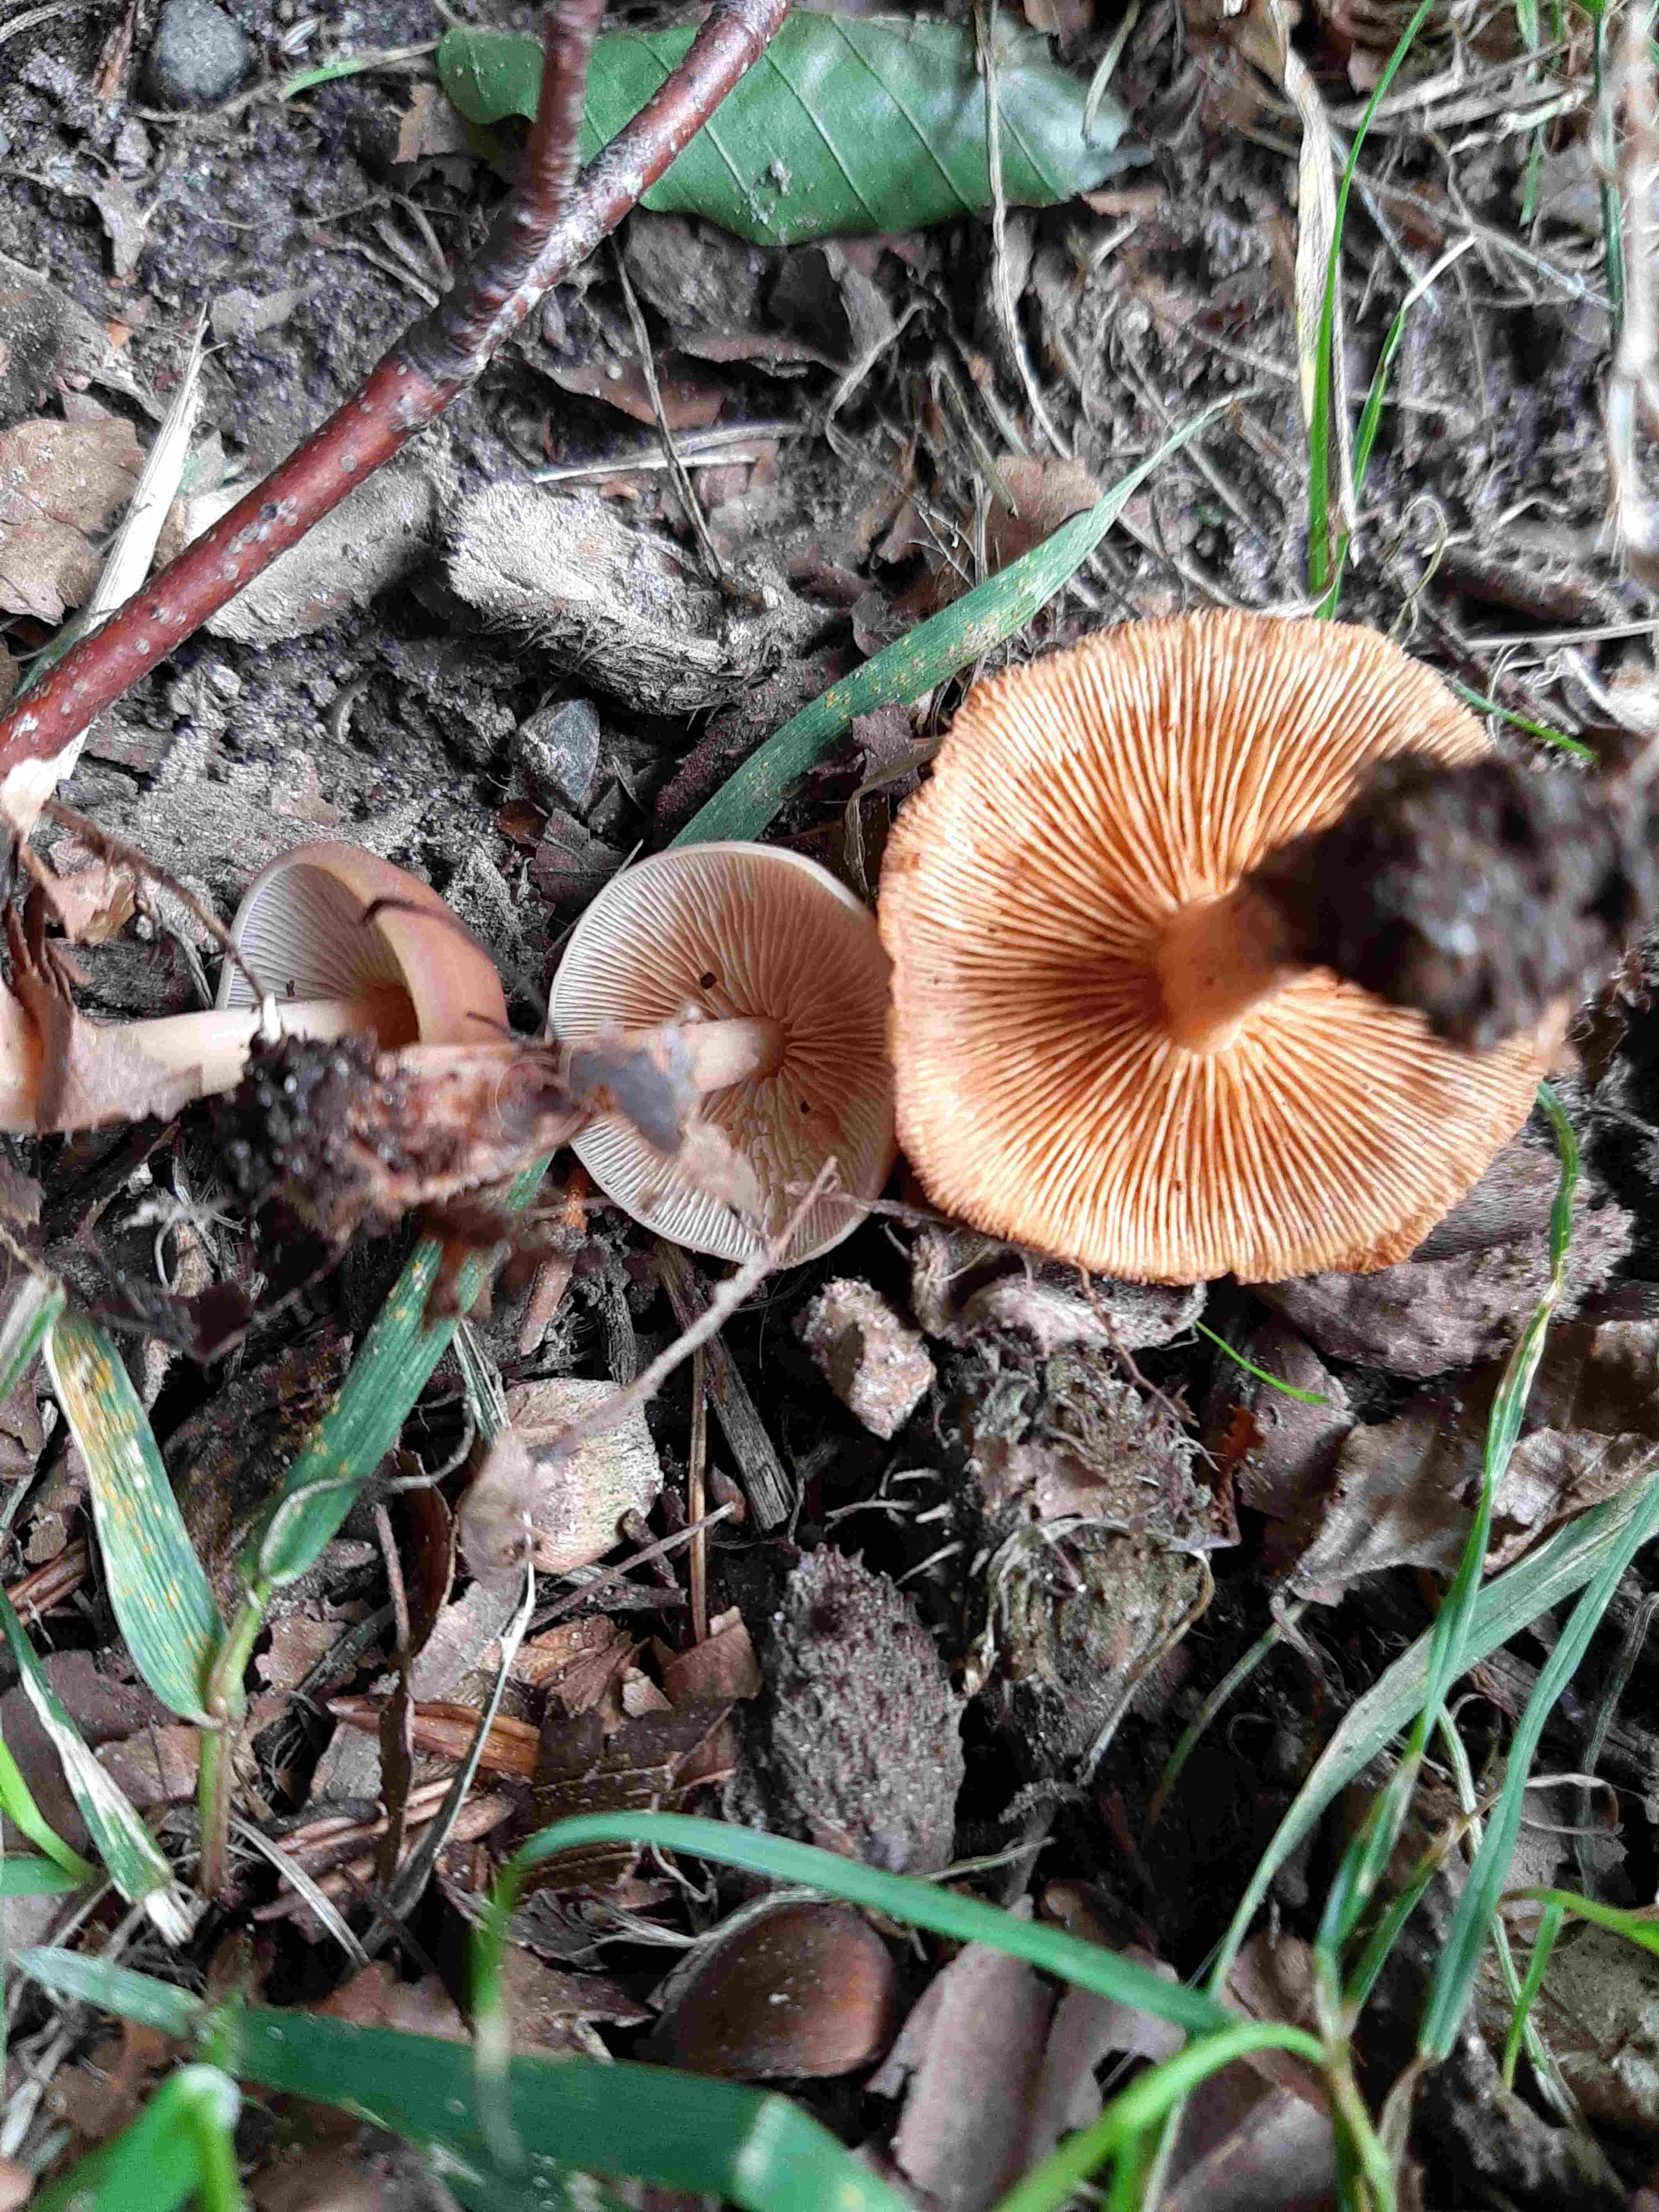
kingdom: Fungi
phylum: Basidiomycota
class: Agaricomycetes
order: Agaricales
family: Omphalotaceae
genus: Gymnopus
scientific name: Gymnopus
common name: fladhat
